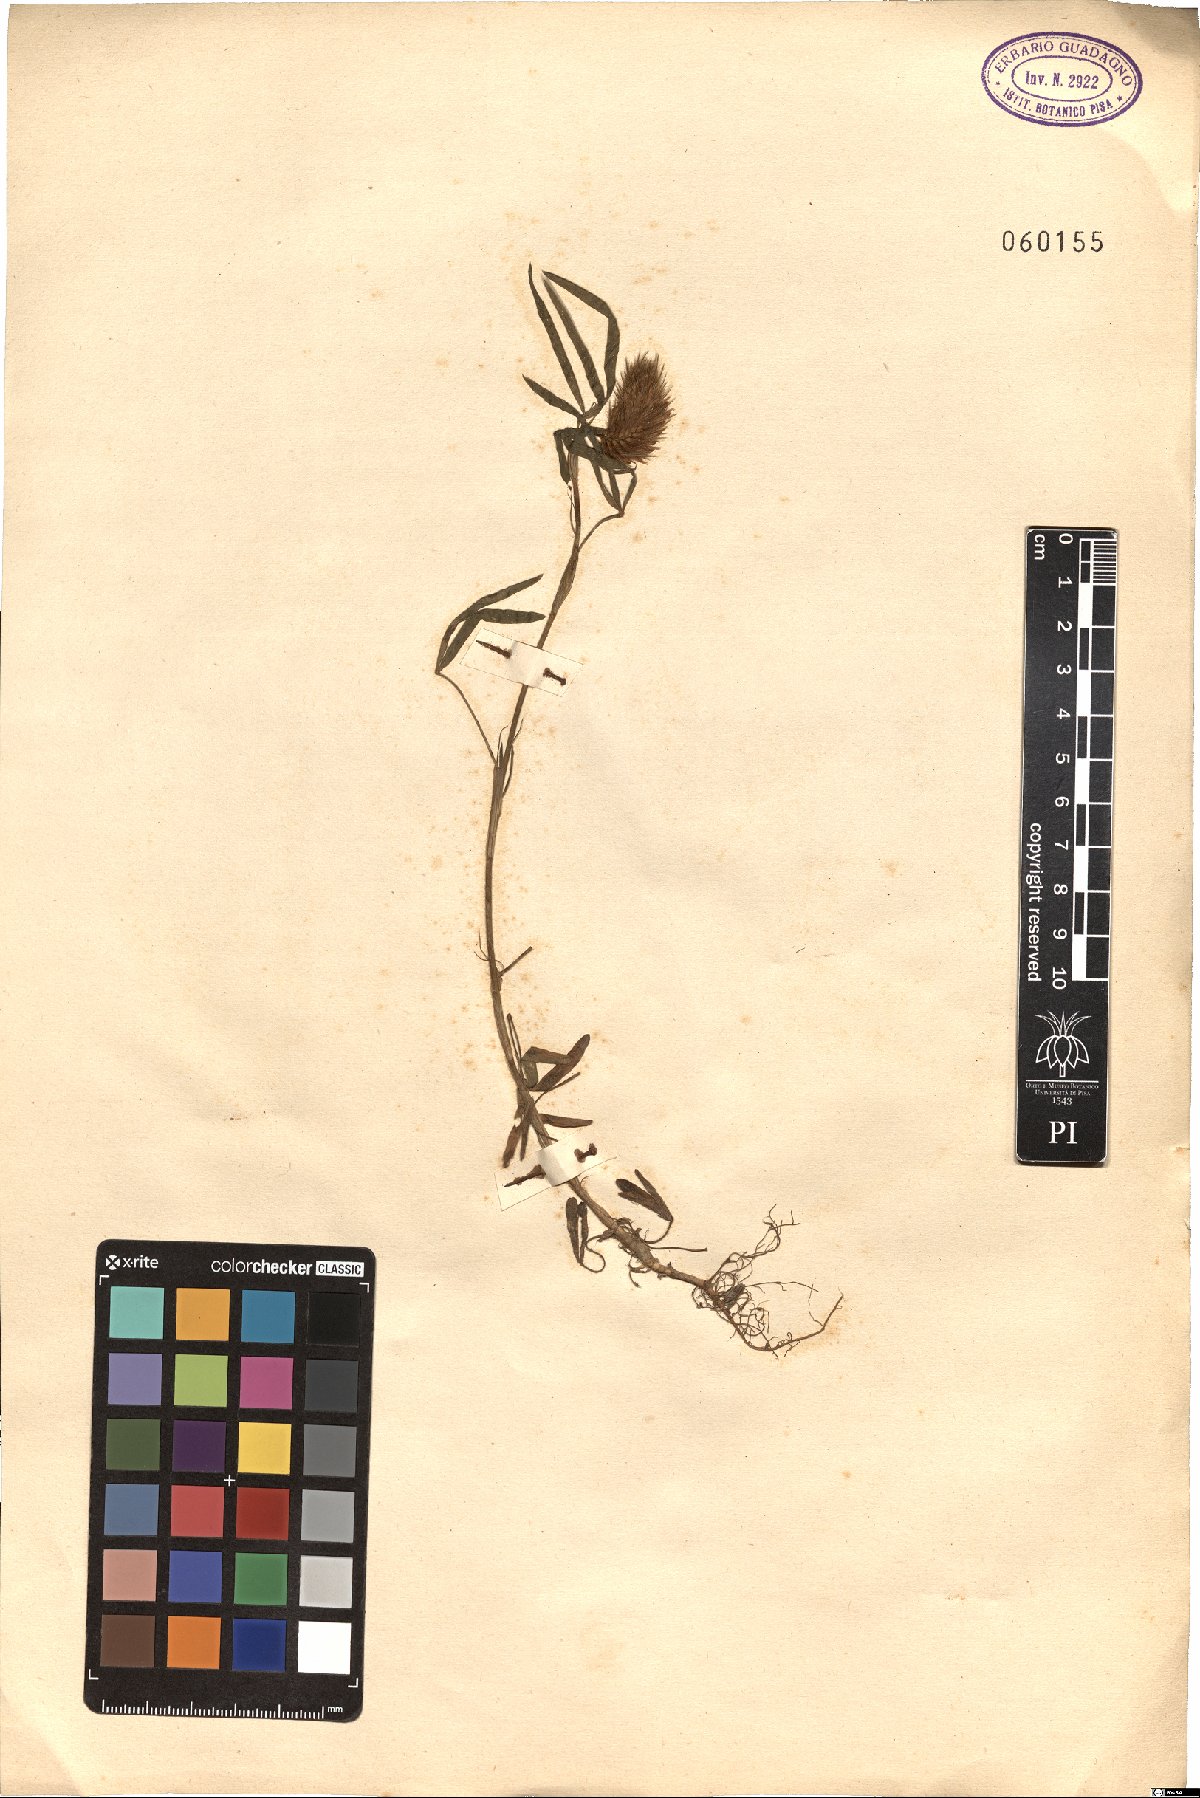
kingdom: Plantae
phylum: Tracheophyta
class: Magnoliopsida
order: Fabales
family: Fabaceae
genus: Trifolium
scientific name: Trifolium angustifolium
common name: Narrow clover
